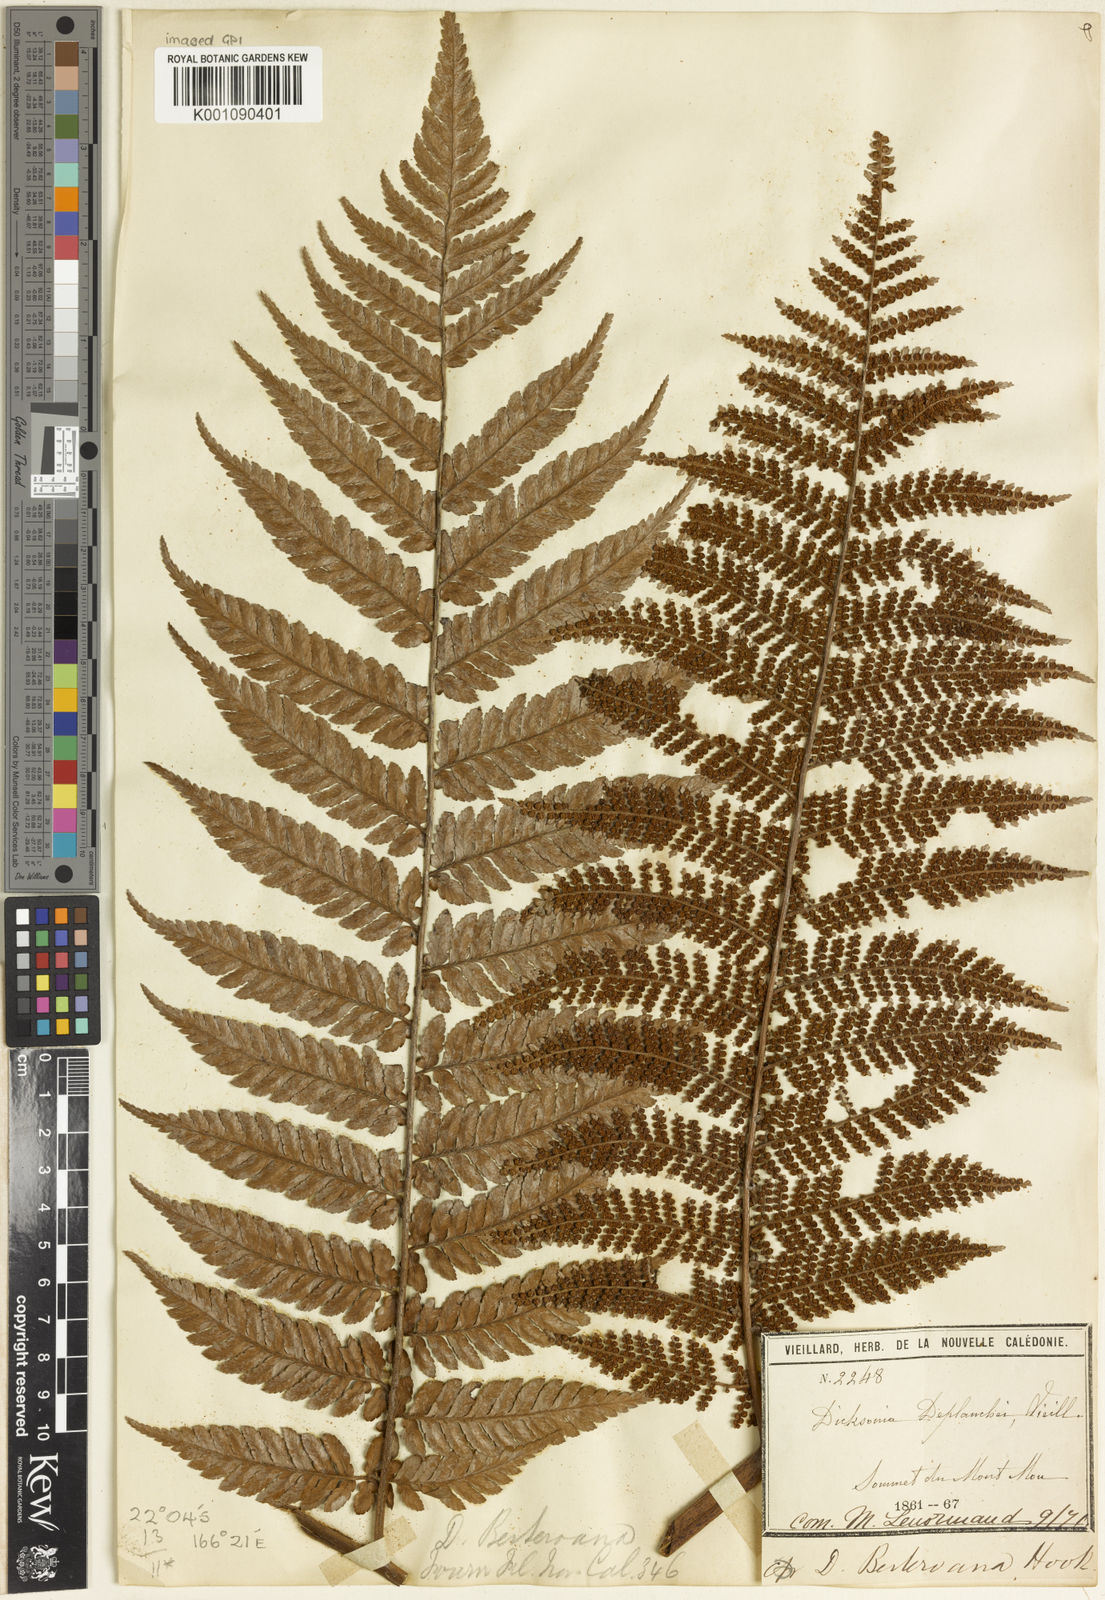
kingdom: Plantae
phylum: Tracheophyta
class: Polypodiopsida
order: Cyatheales
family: Dicksoniaceae
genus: Dicksonia
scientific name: Dicksonia baudouinii
